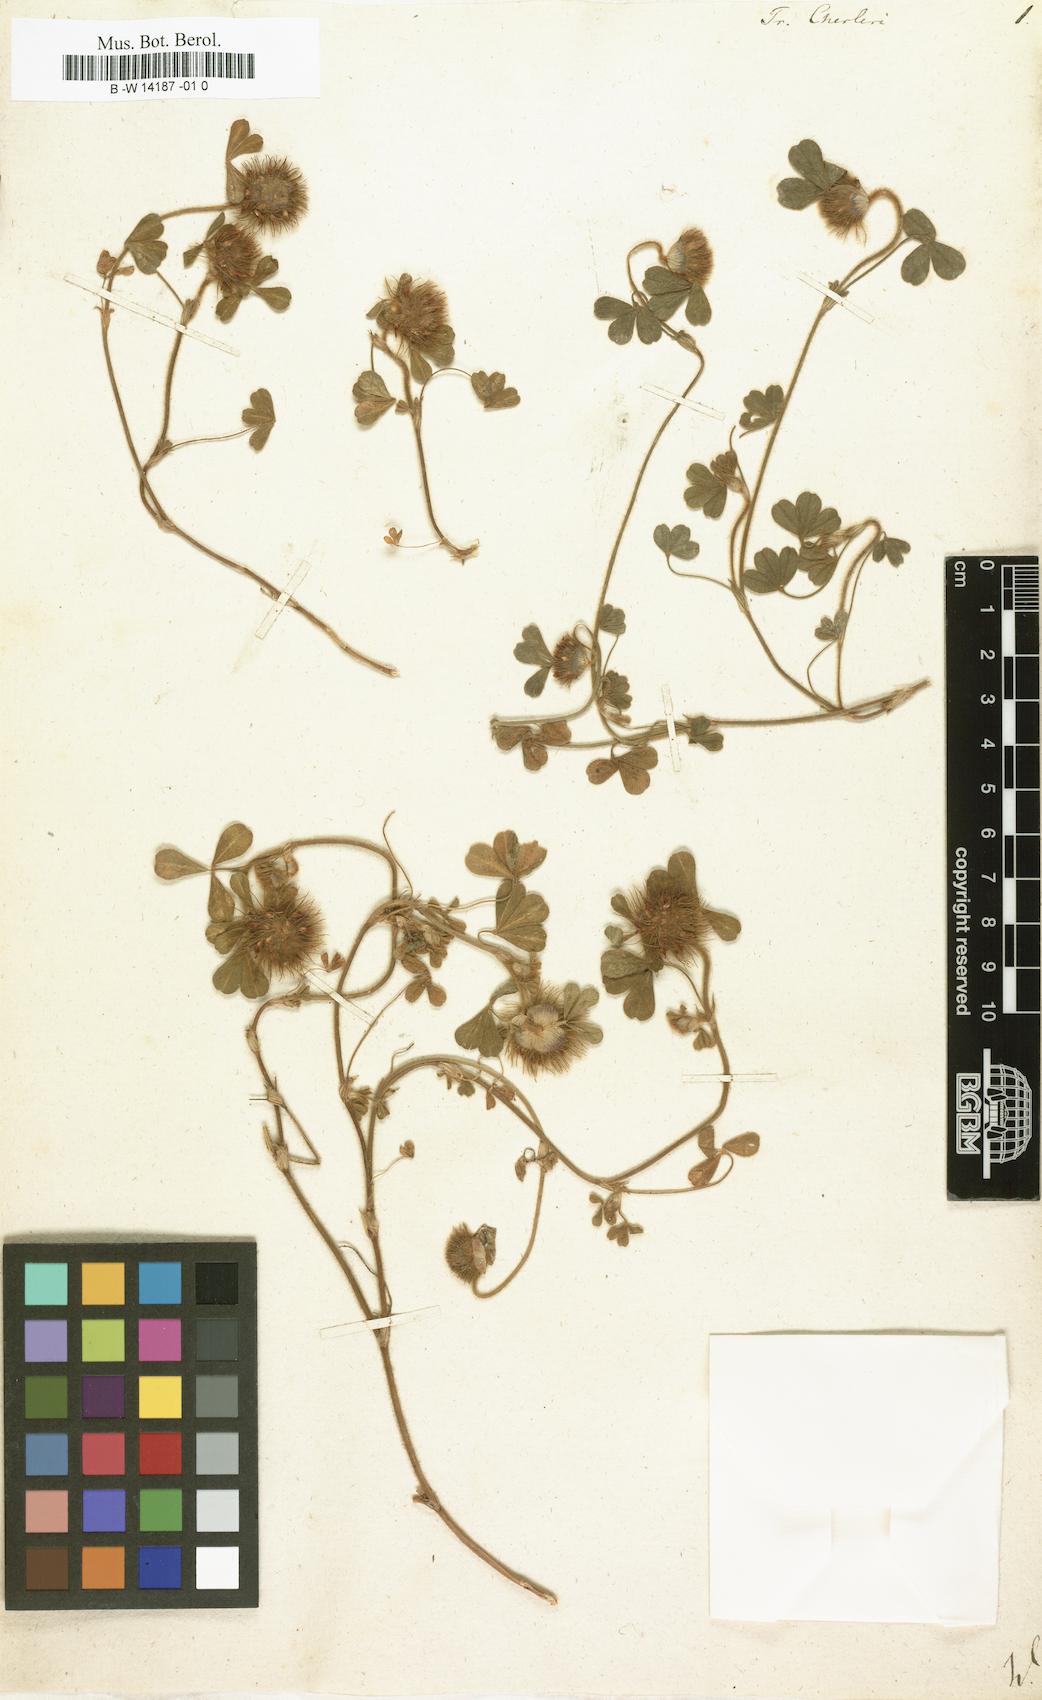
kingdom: Plantae
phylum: Tracheophyta
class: Magnoliopsida
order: Fabales
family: Fabaceae
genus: Trifolium
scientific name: Trifolium cherleri
